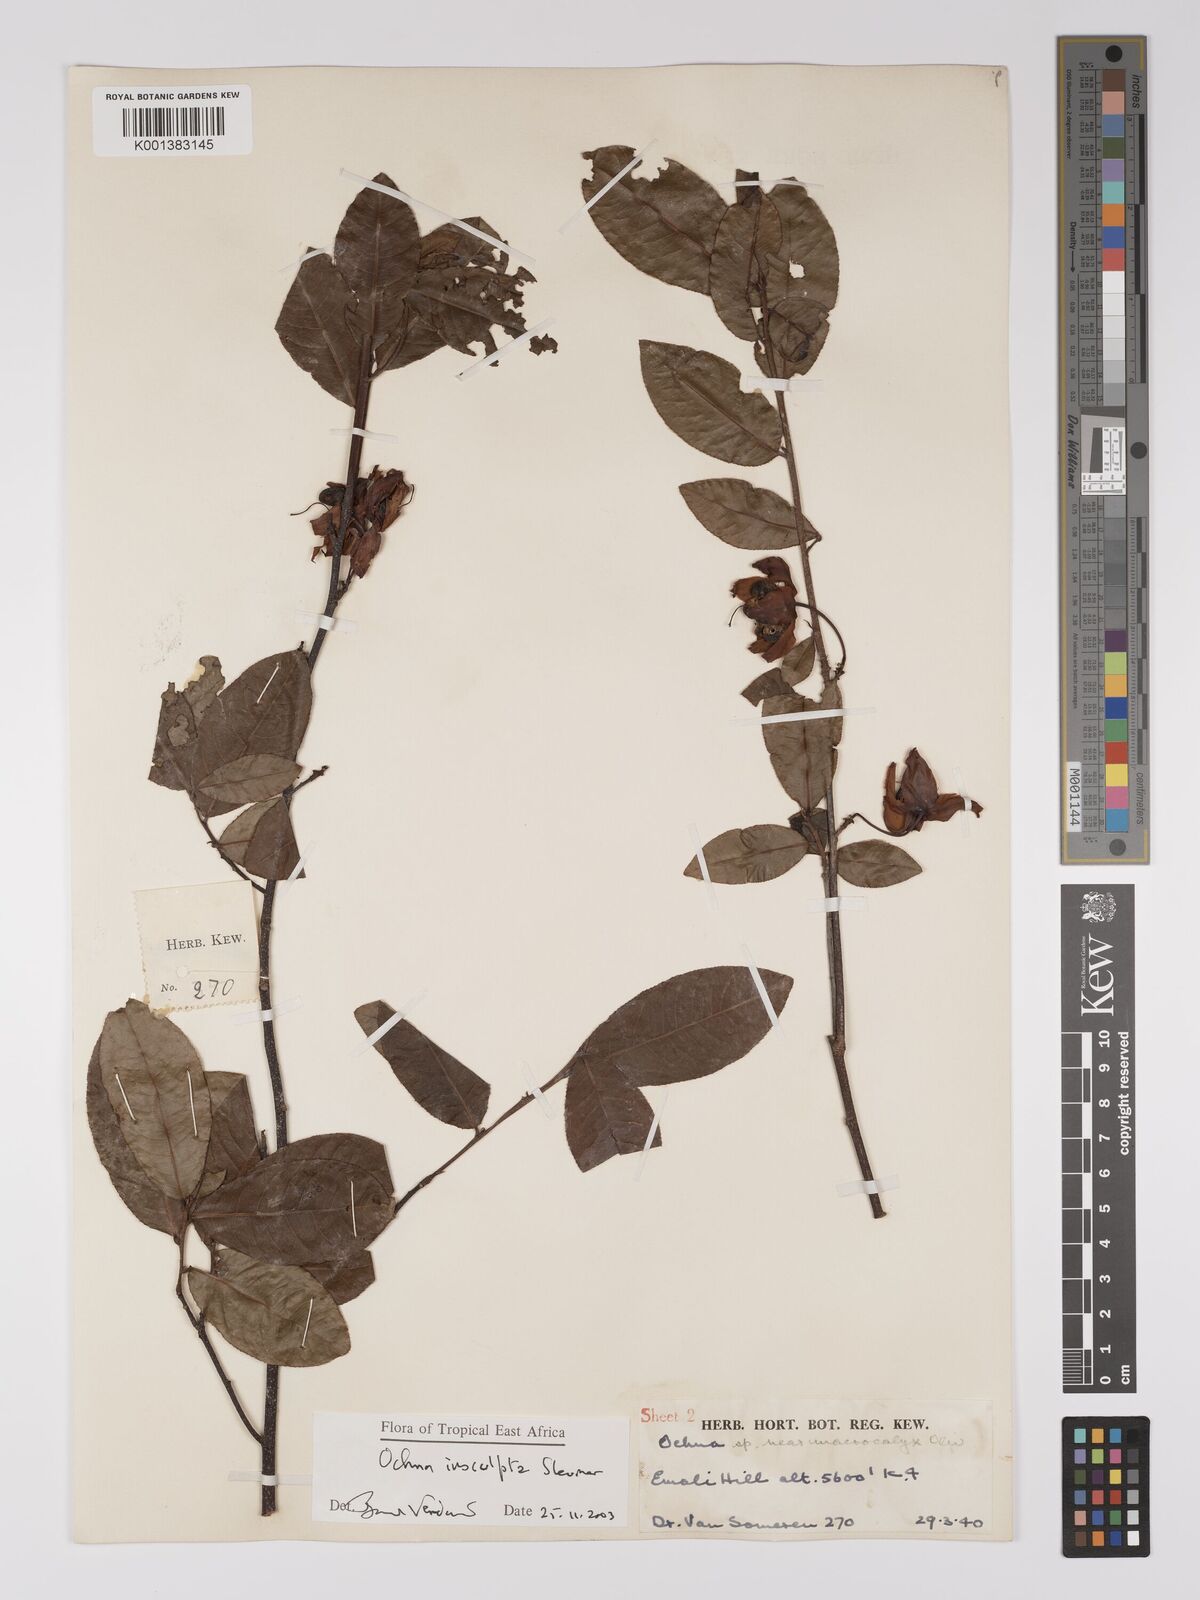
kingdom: Plantae
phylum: Tracheophyta
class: Magnoliopsida
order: Malpighiales
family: Ochnaceae
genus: Ochna
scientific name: Ochna
